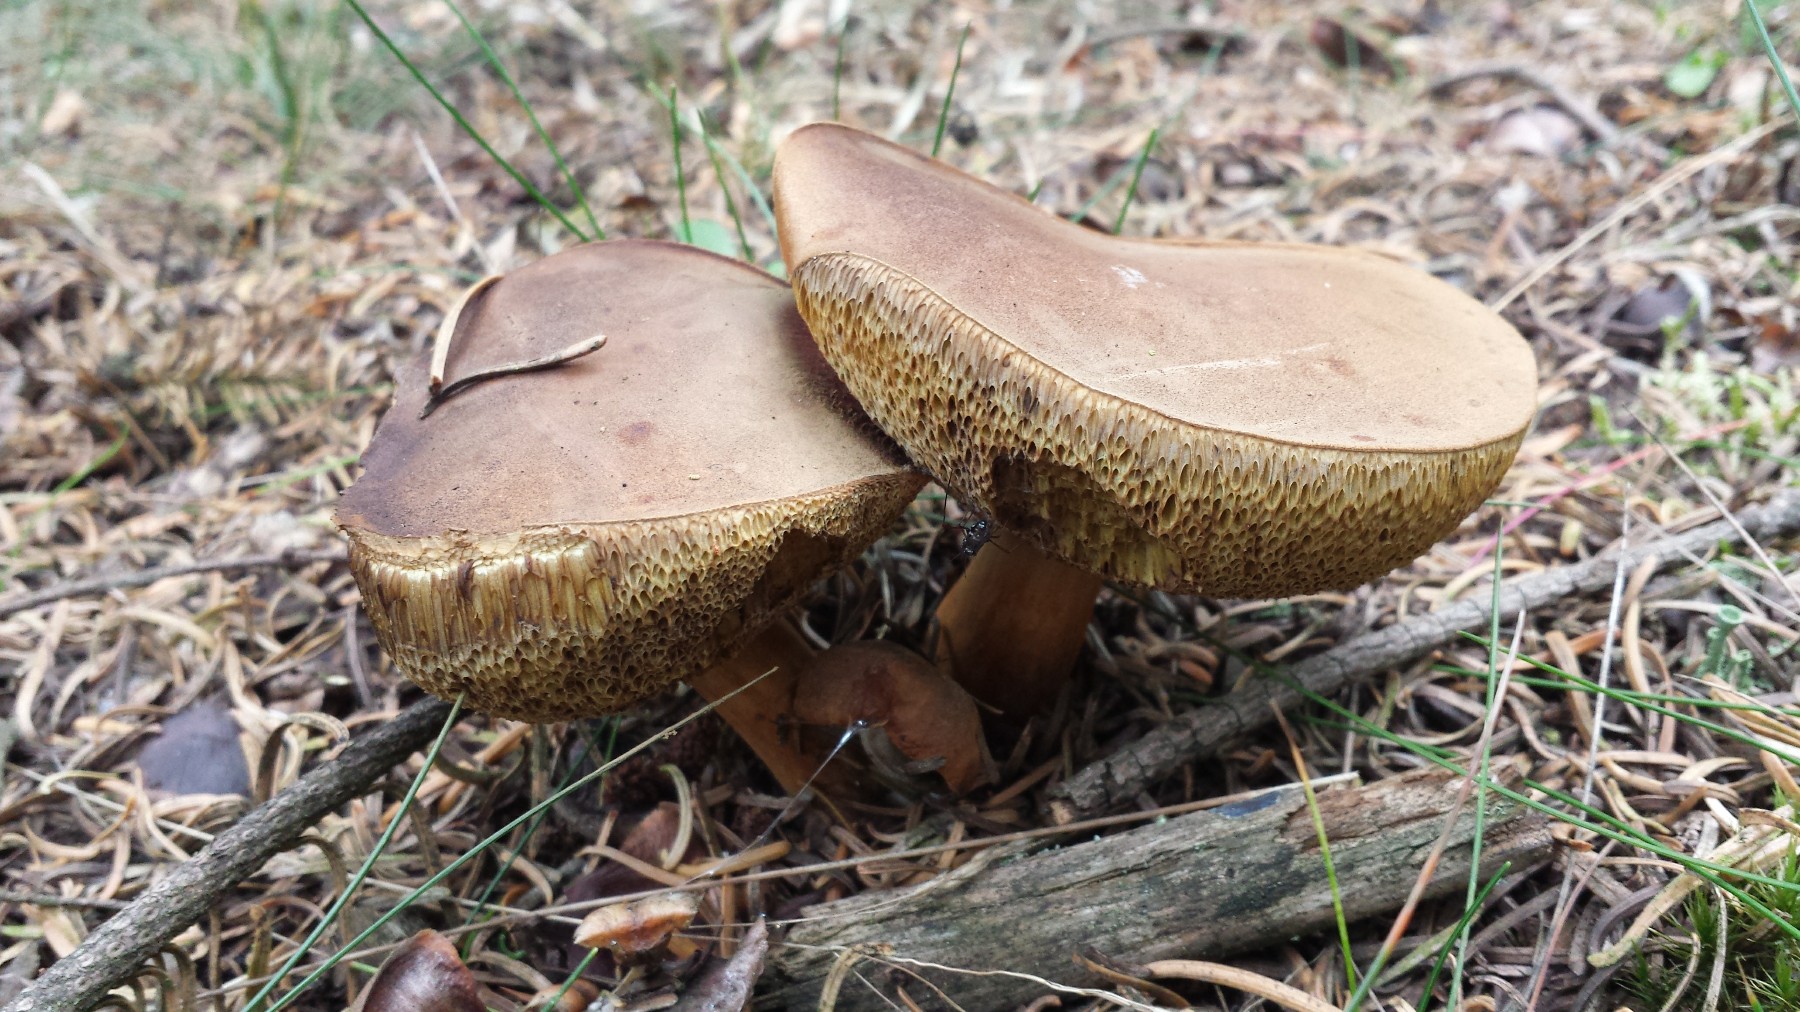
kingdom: Fungi
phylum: Basidiomycota
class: Agaricomycetes
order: Boletales
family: Boletaceae
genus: Imleria
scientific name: Imleria badia
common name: brunstokket rørhat
